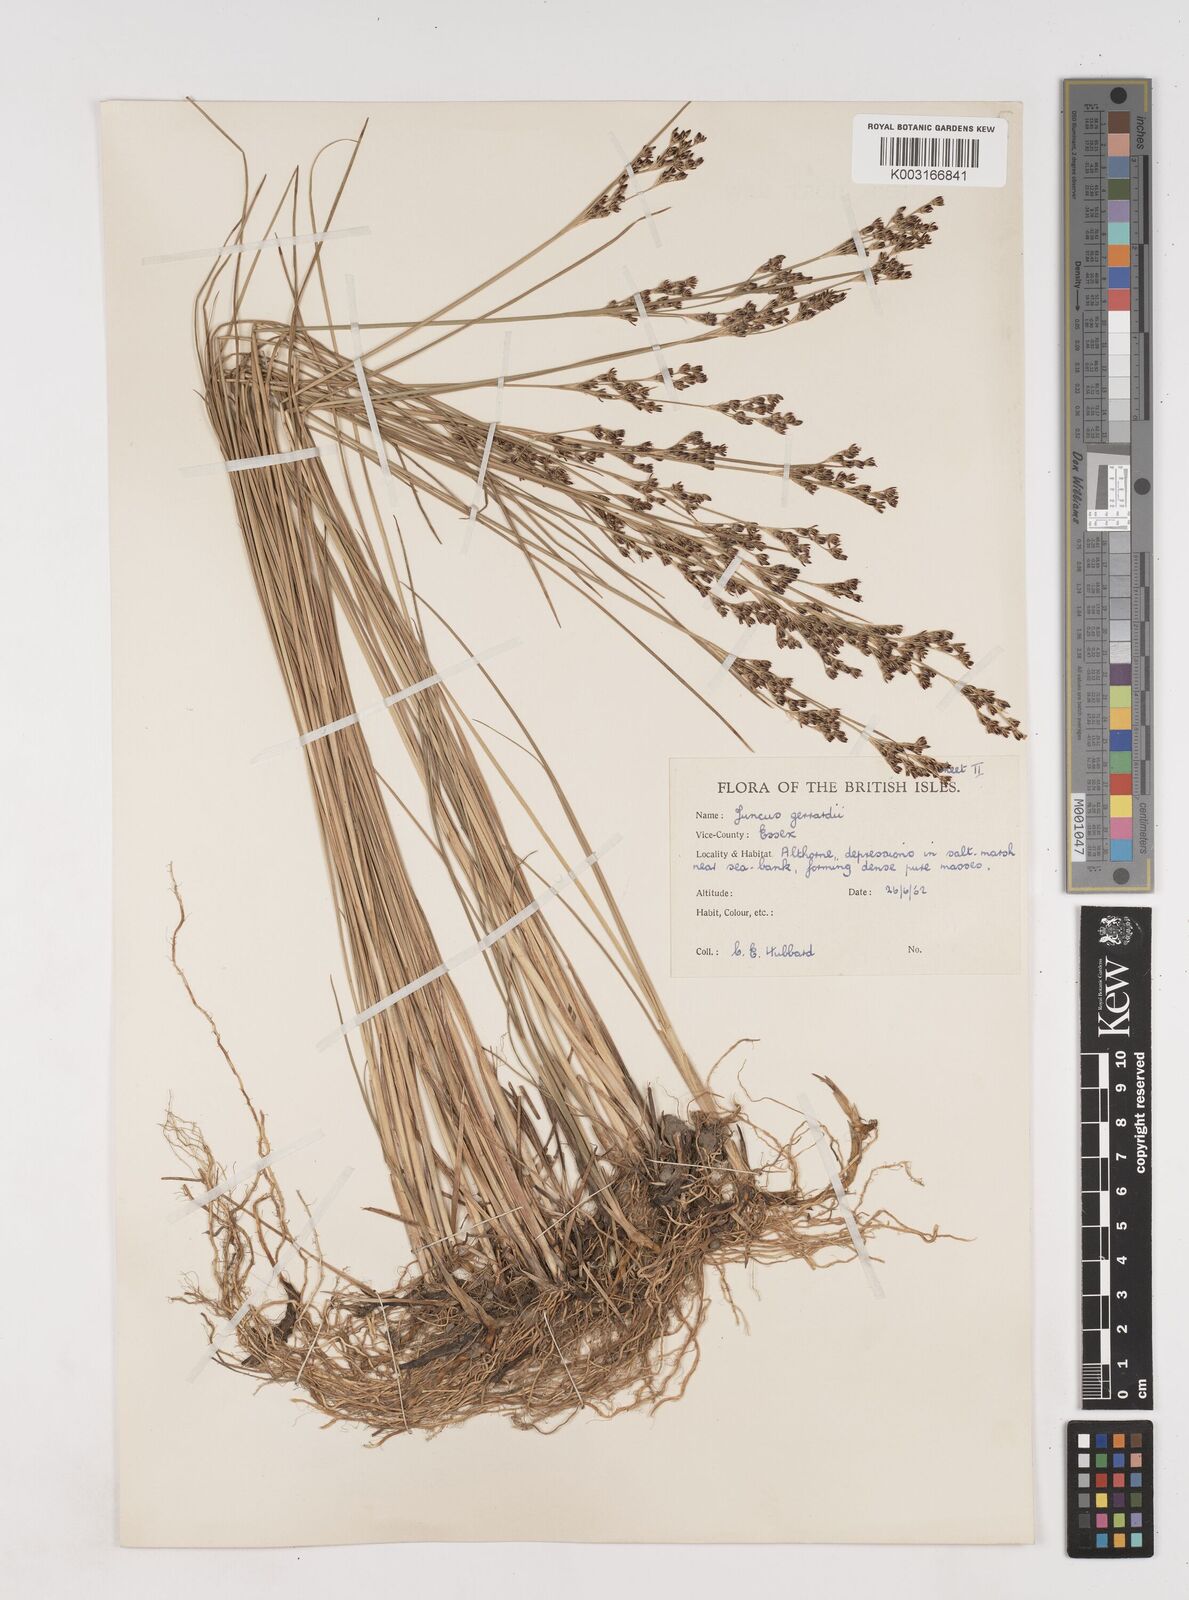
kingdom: Plantae
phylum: Tracheophyta
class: Liliopsida
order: Poales
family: Juncaceae
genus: Juncus
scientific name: Juncus gerardi
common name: Saltmarsh rush
